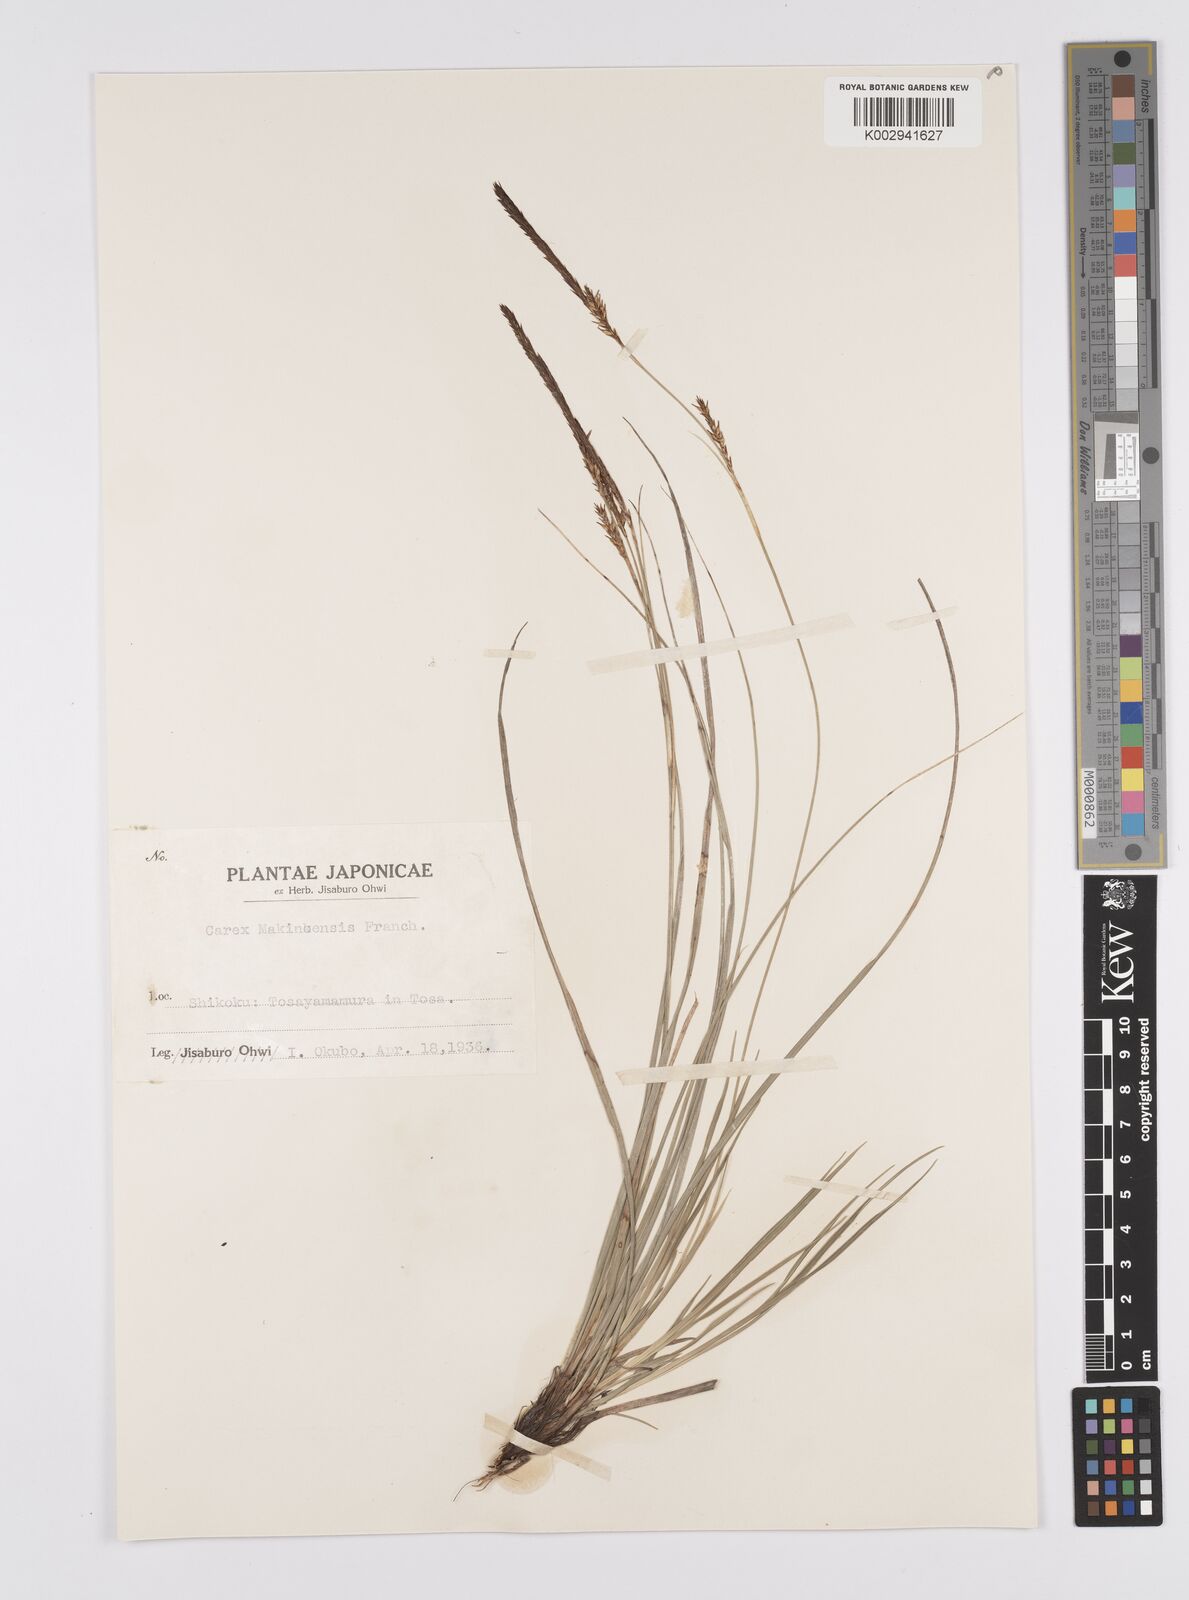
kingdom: Plantae
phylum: Tracheophyta
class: Liliopsida
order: Poales
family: Cyperaceae
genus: Carex
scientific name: Carex chrysolepis
